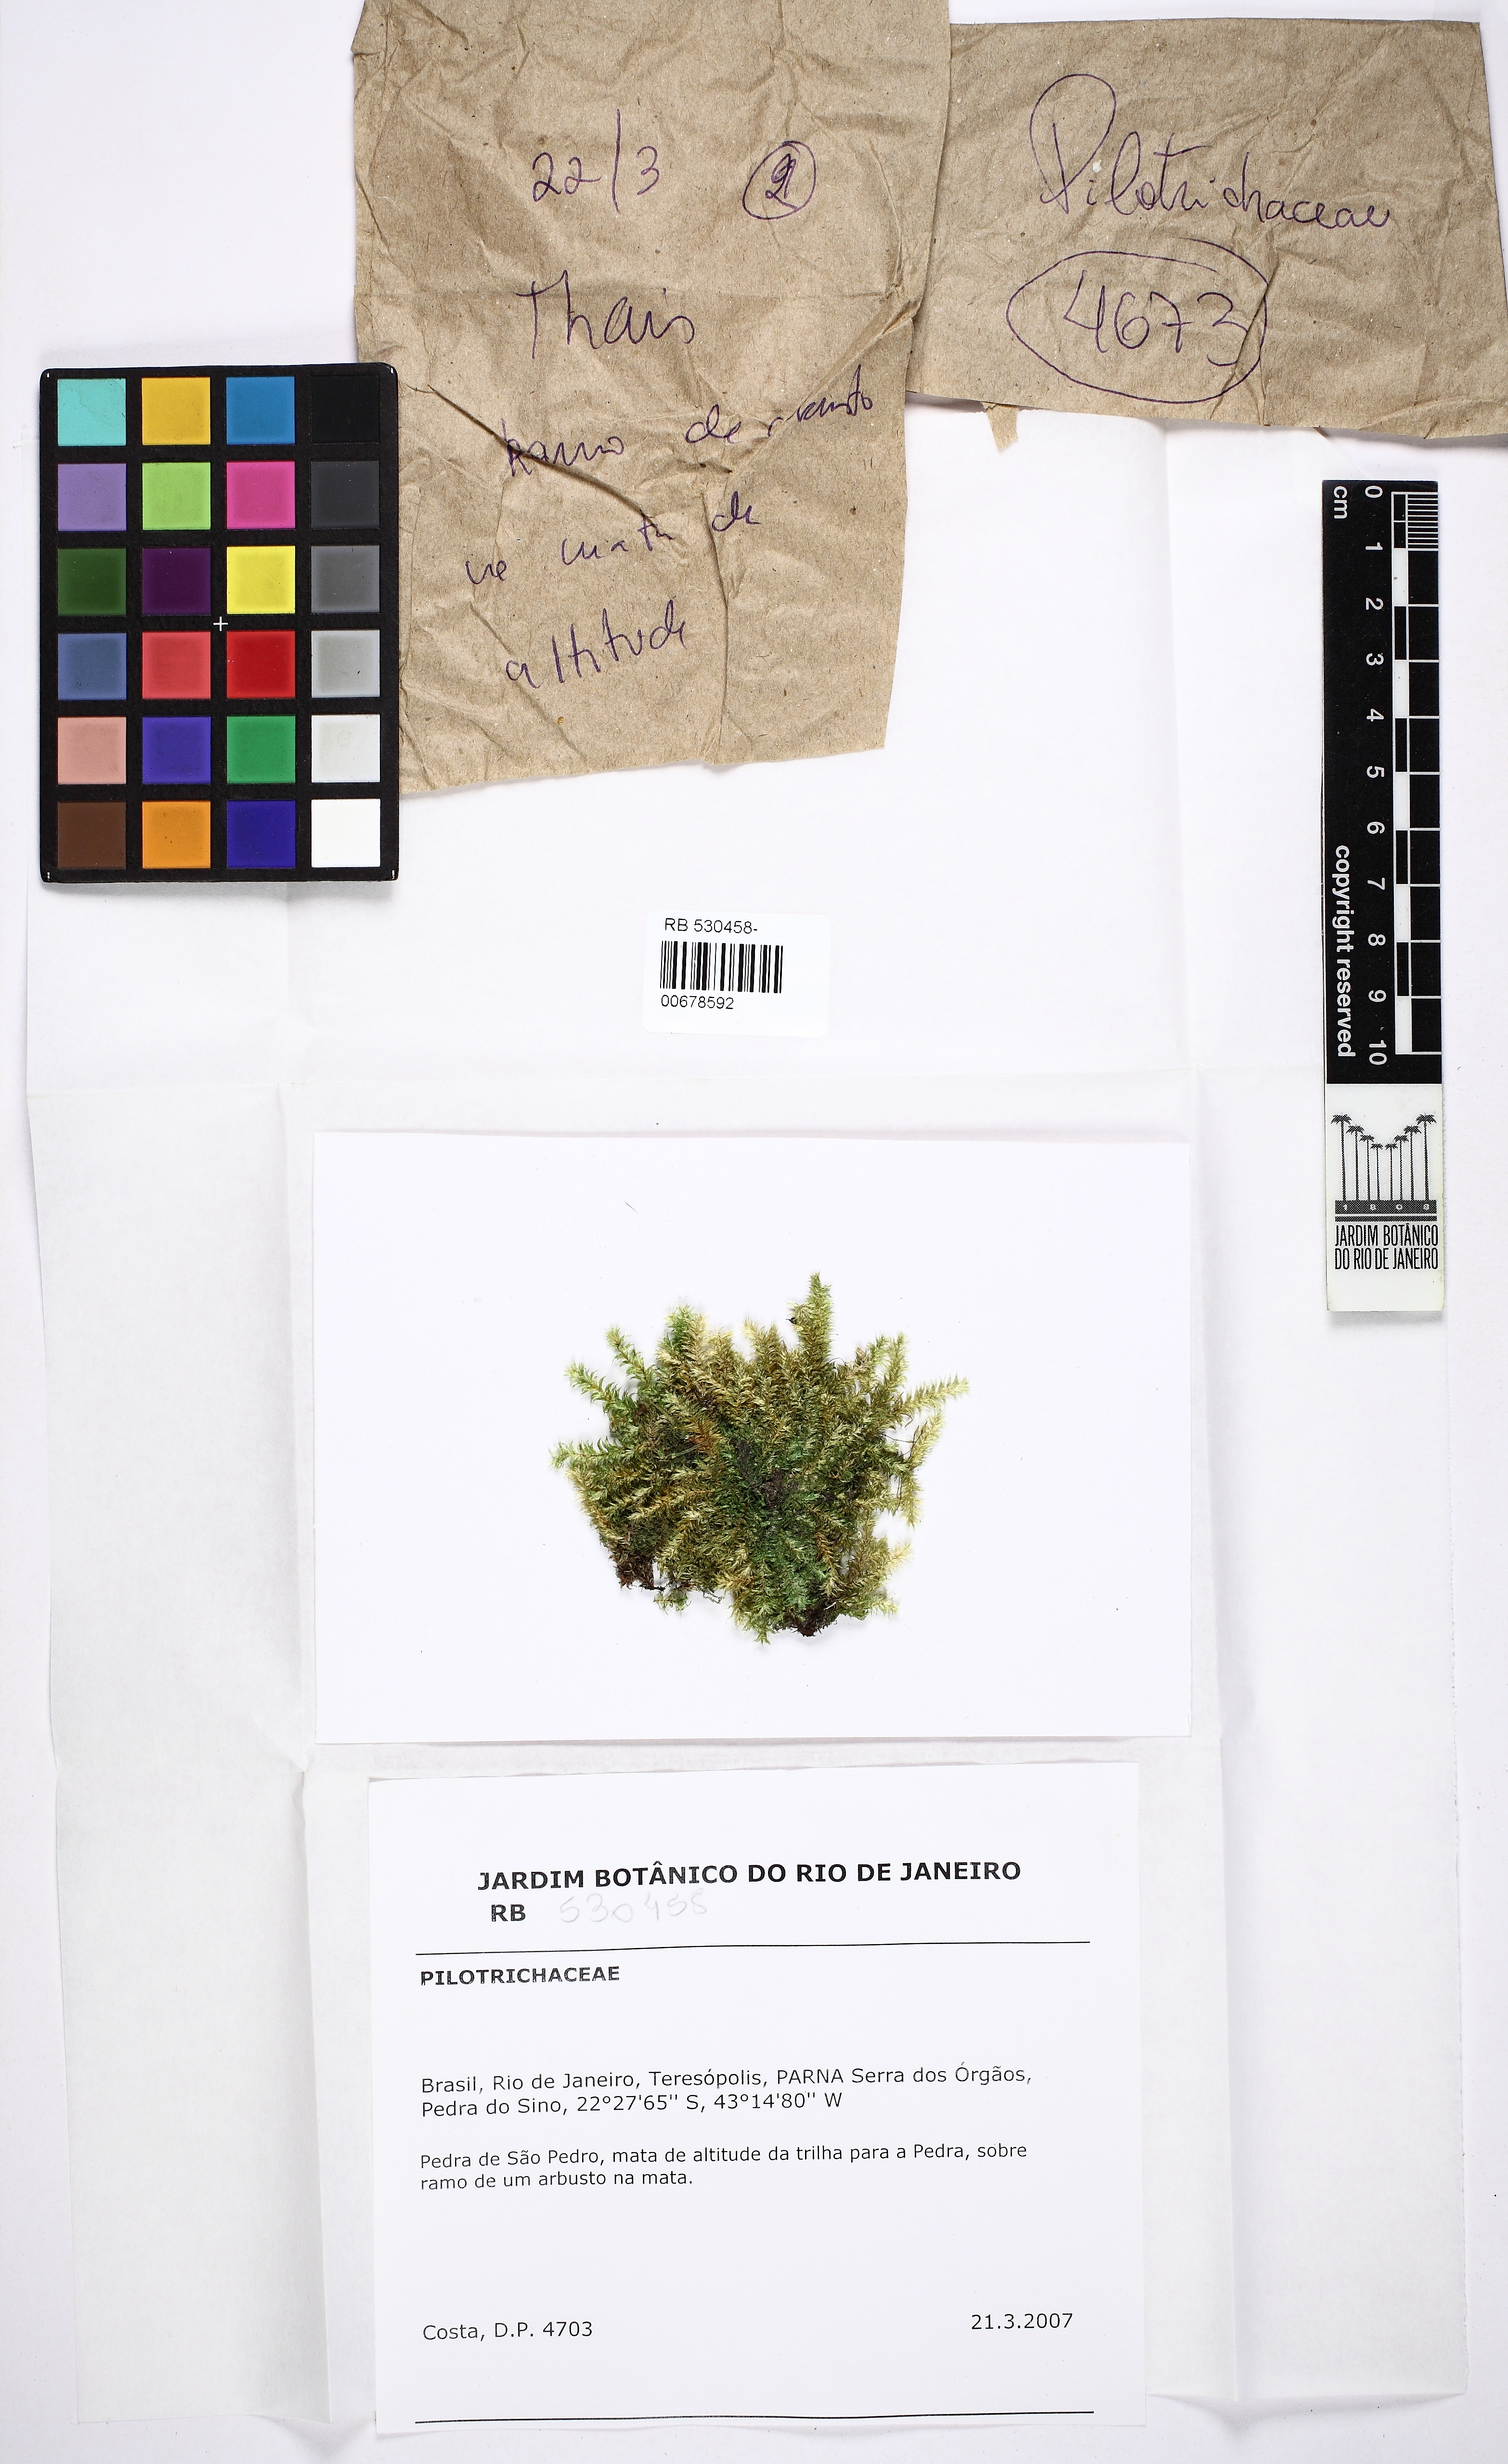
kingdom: Plantae
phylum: Bryophyta
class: Bryopsida
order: Hookeriales
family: Pilotrichaceae
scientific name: Pilotrichaceae
